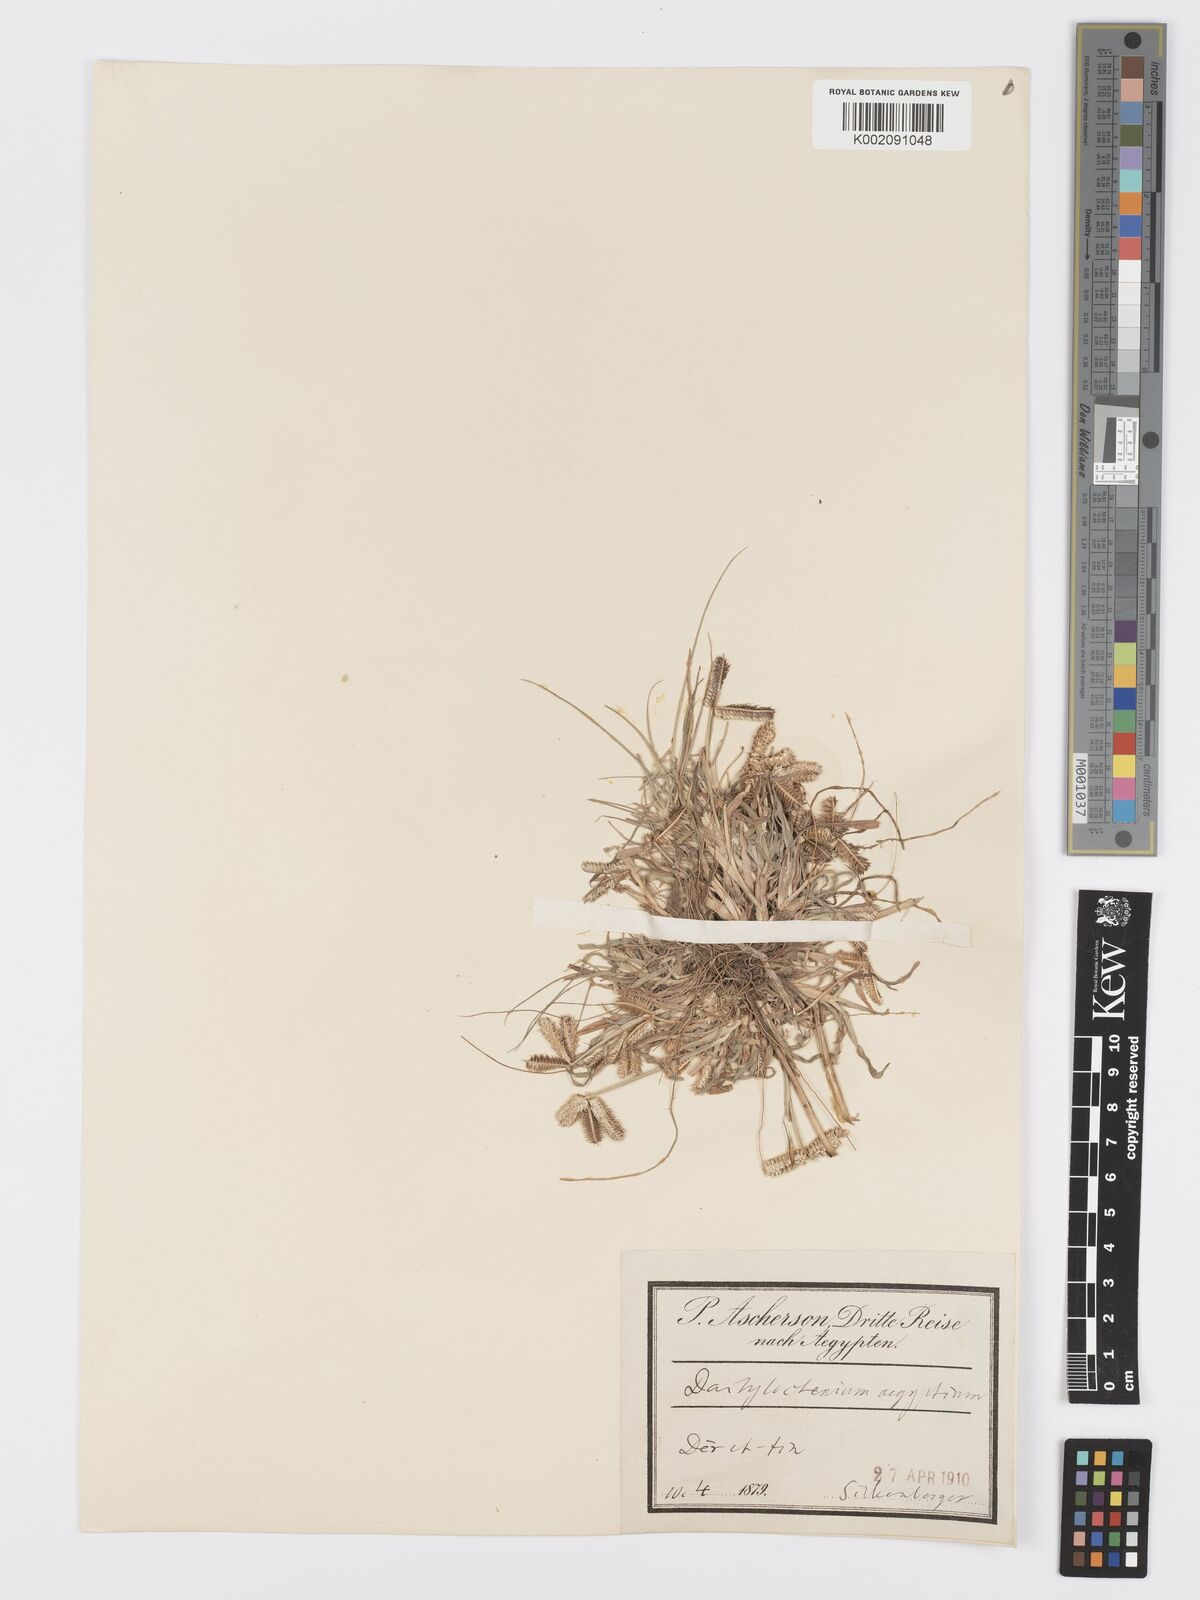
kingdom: Plantae
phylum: Tracheophyta
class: Liliopsida
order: Poales
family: Poaceae
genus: Dactyloctenium
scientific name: Dactyloctenium aegyptium
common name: Egyptian grass
